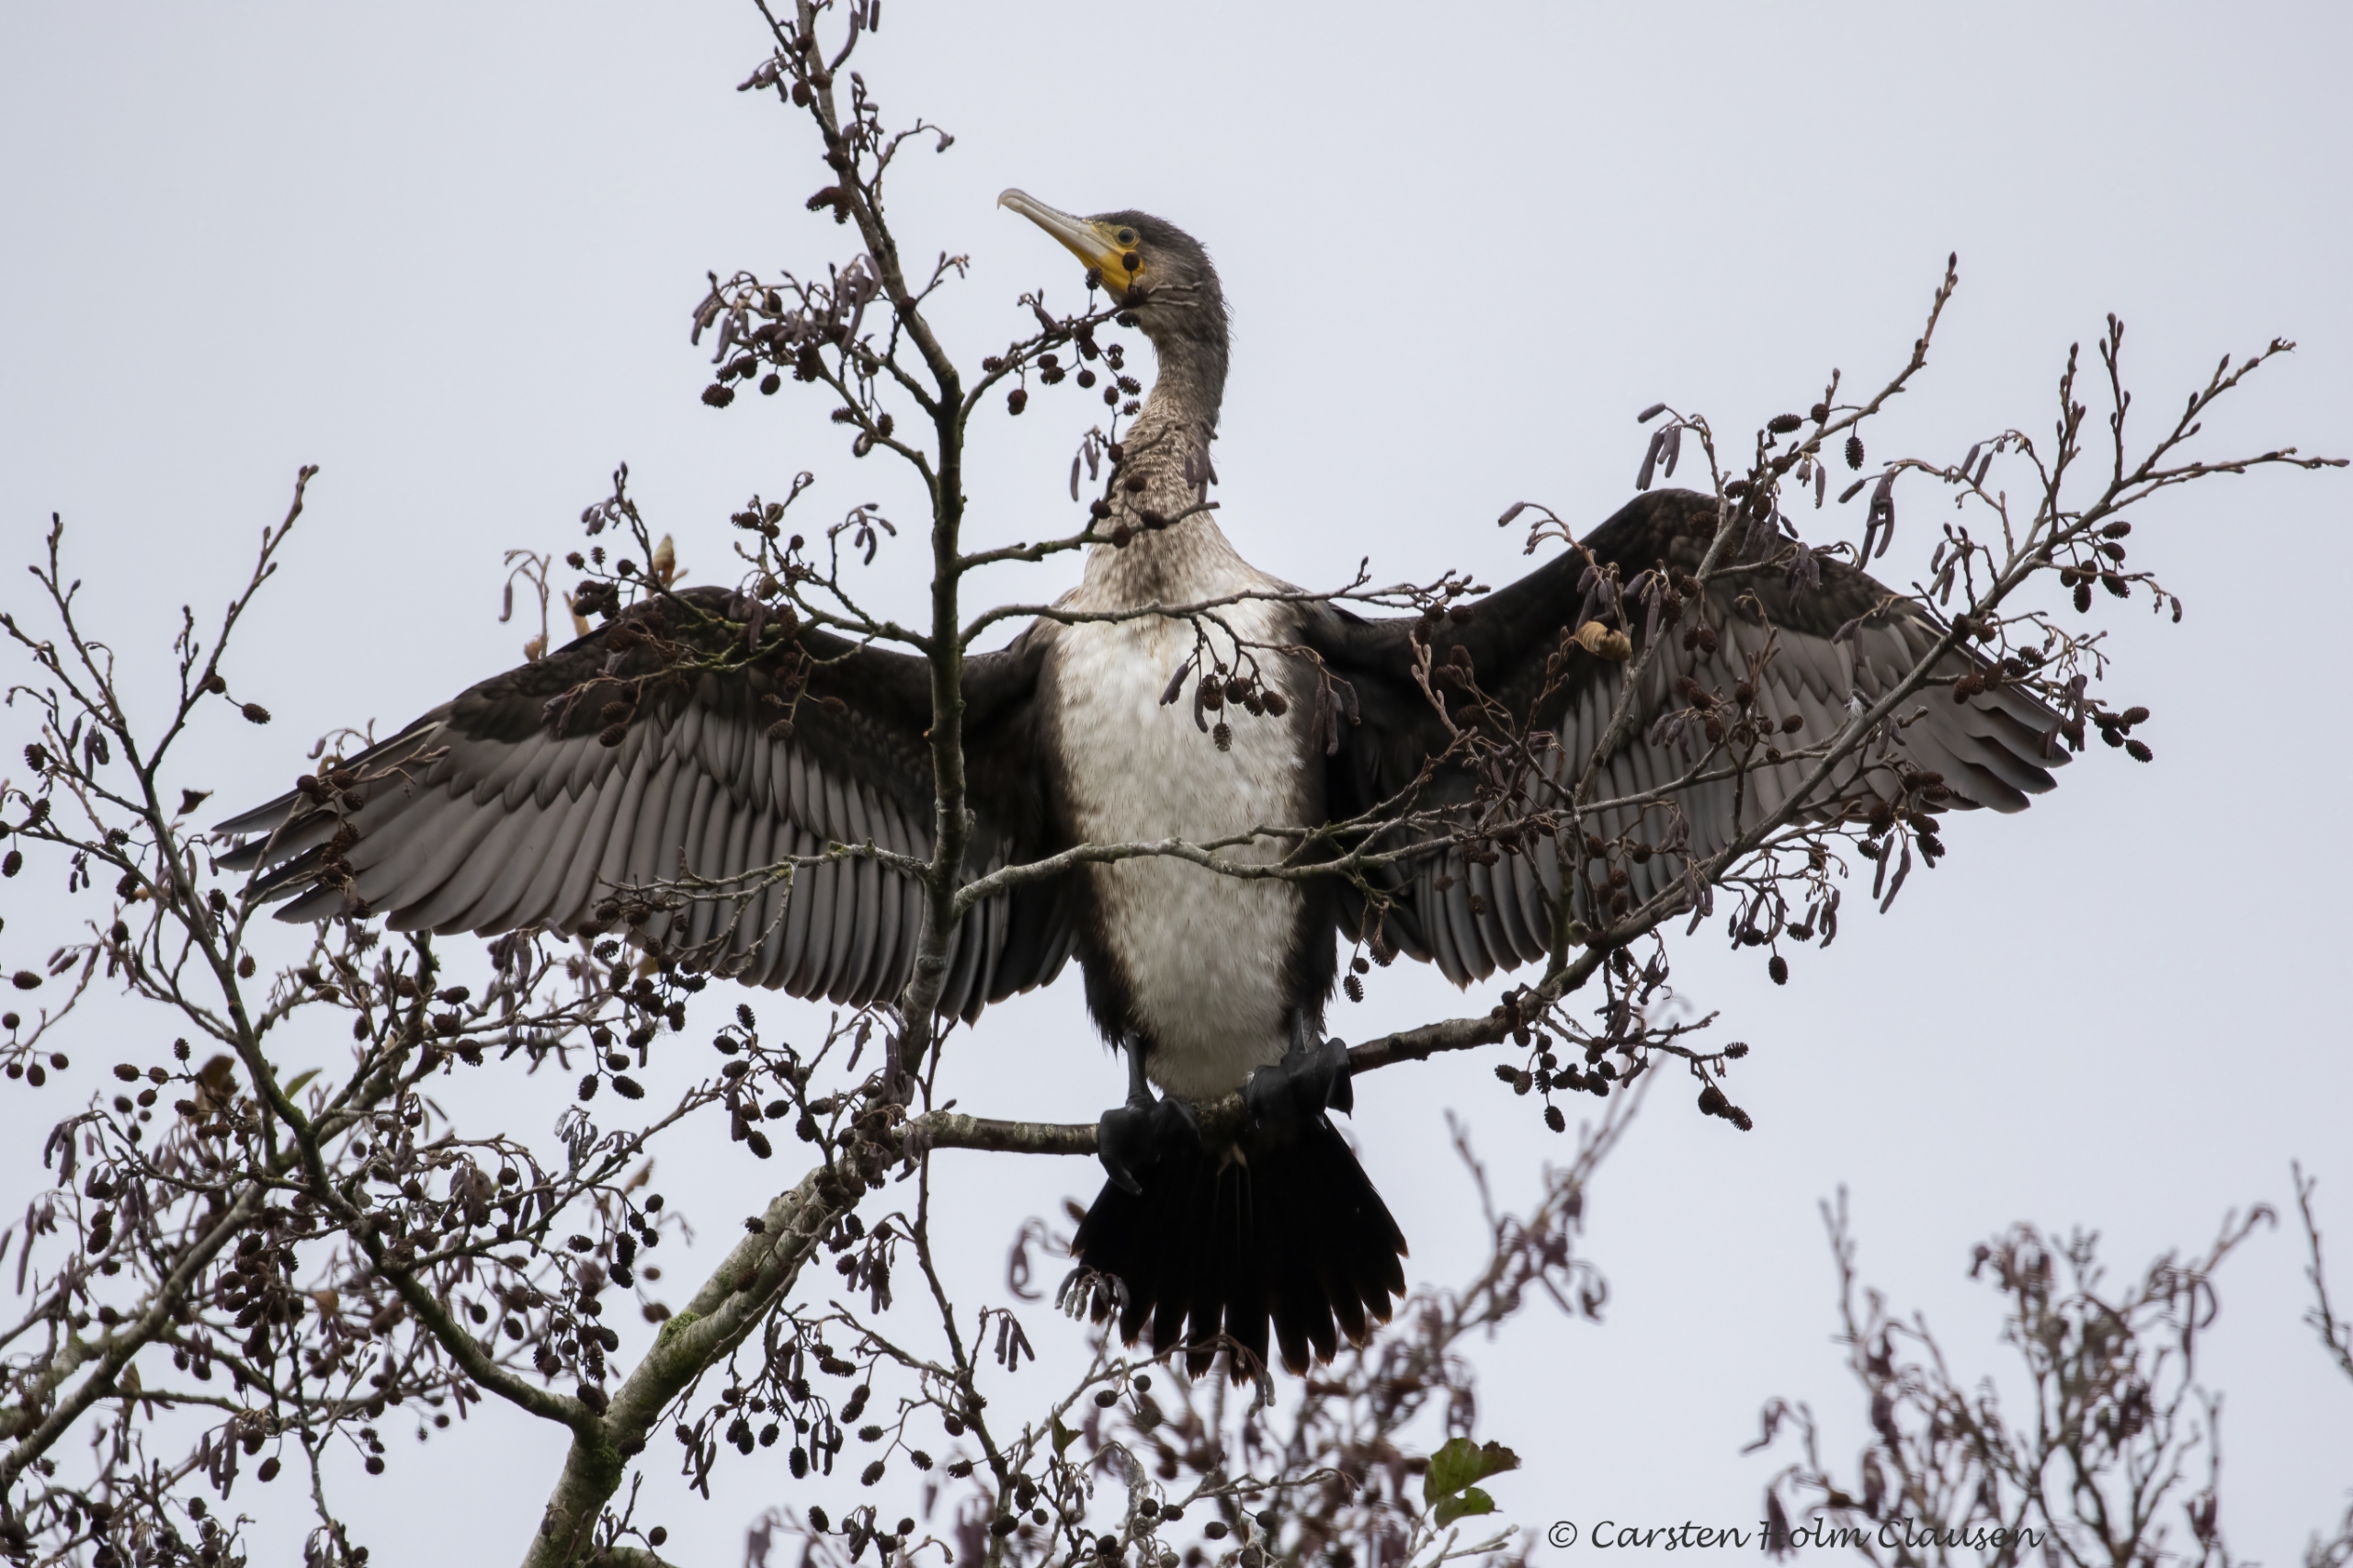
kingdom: Animalia
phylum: Chordata
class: Aves
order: Suliformes
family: Phalacrocoracidae
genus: Phalacrocorax
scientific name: Phalacrocorax carbo
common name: Skarv
